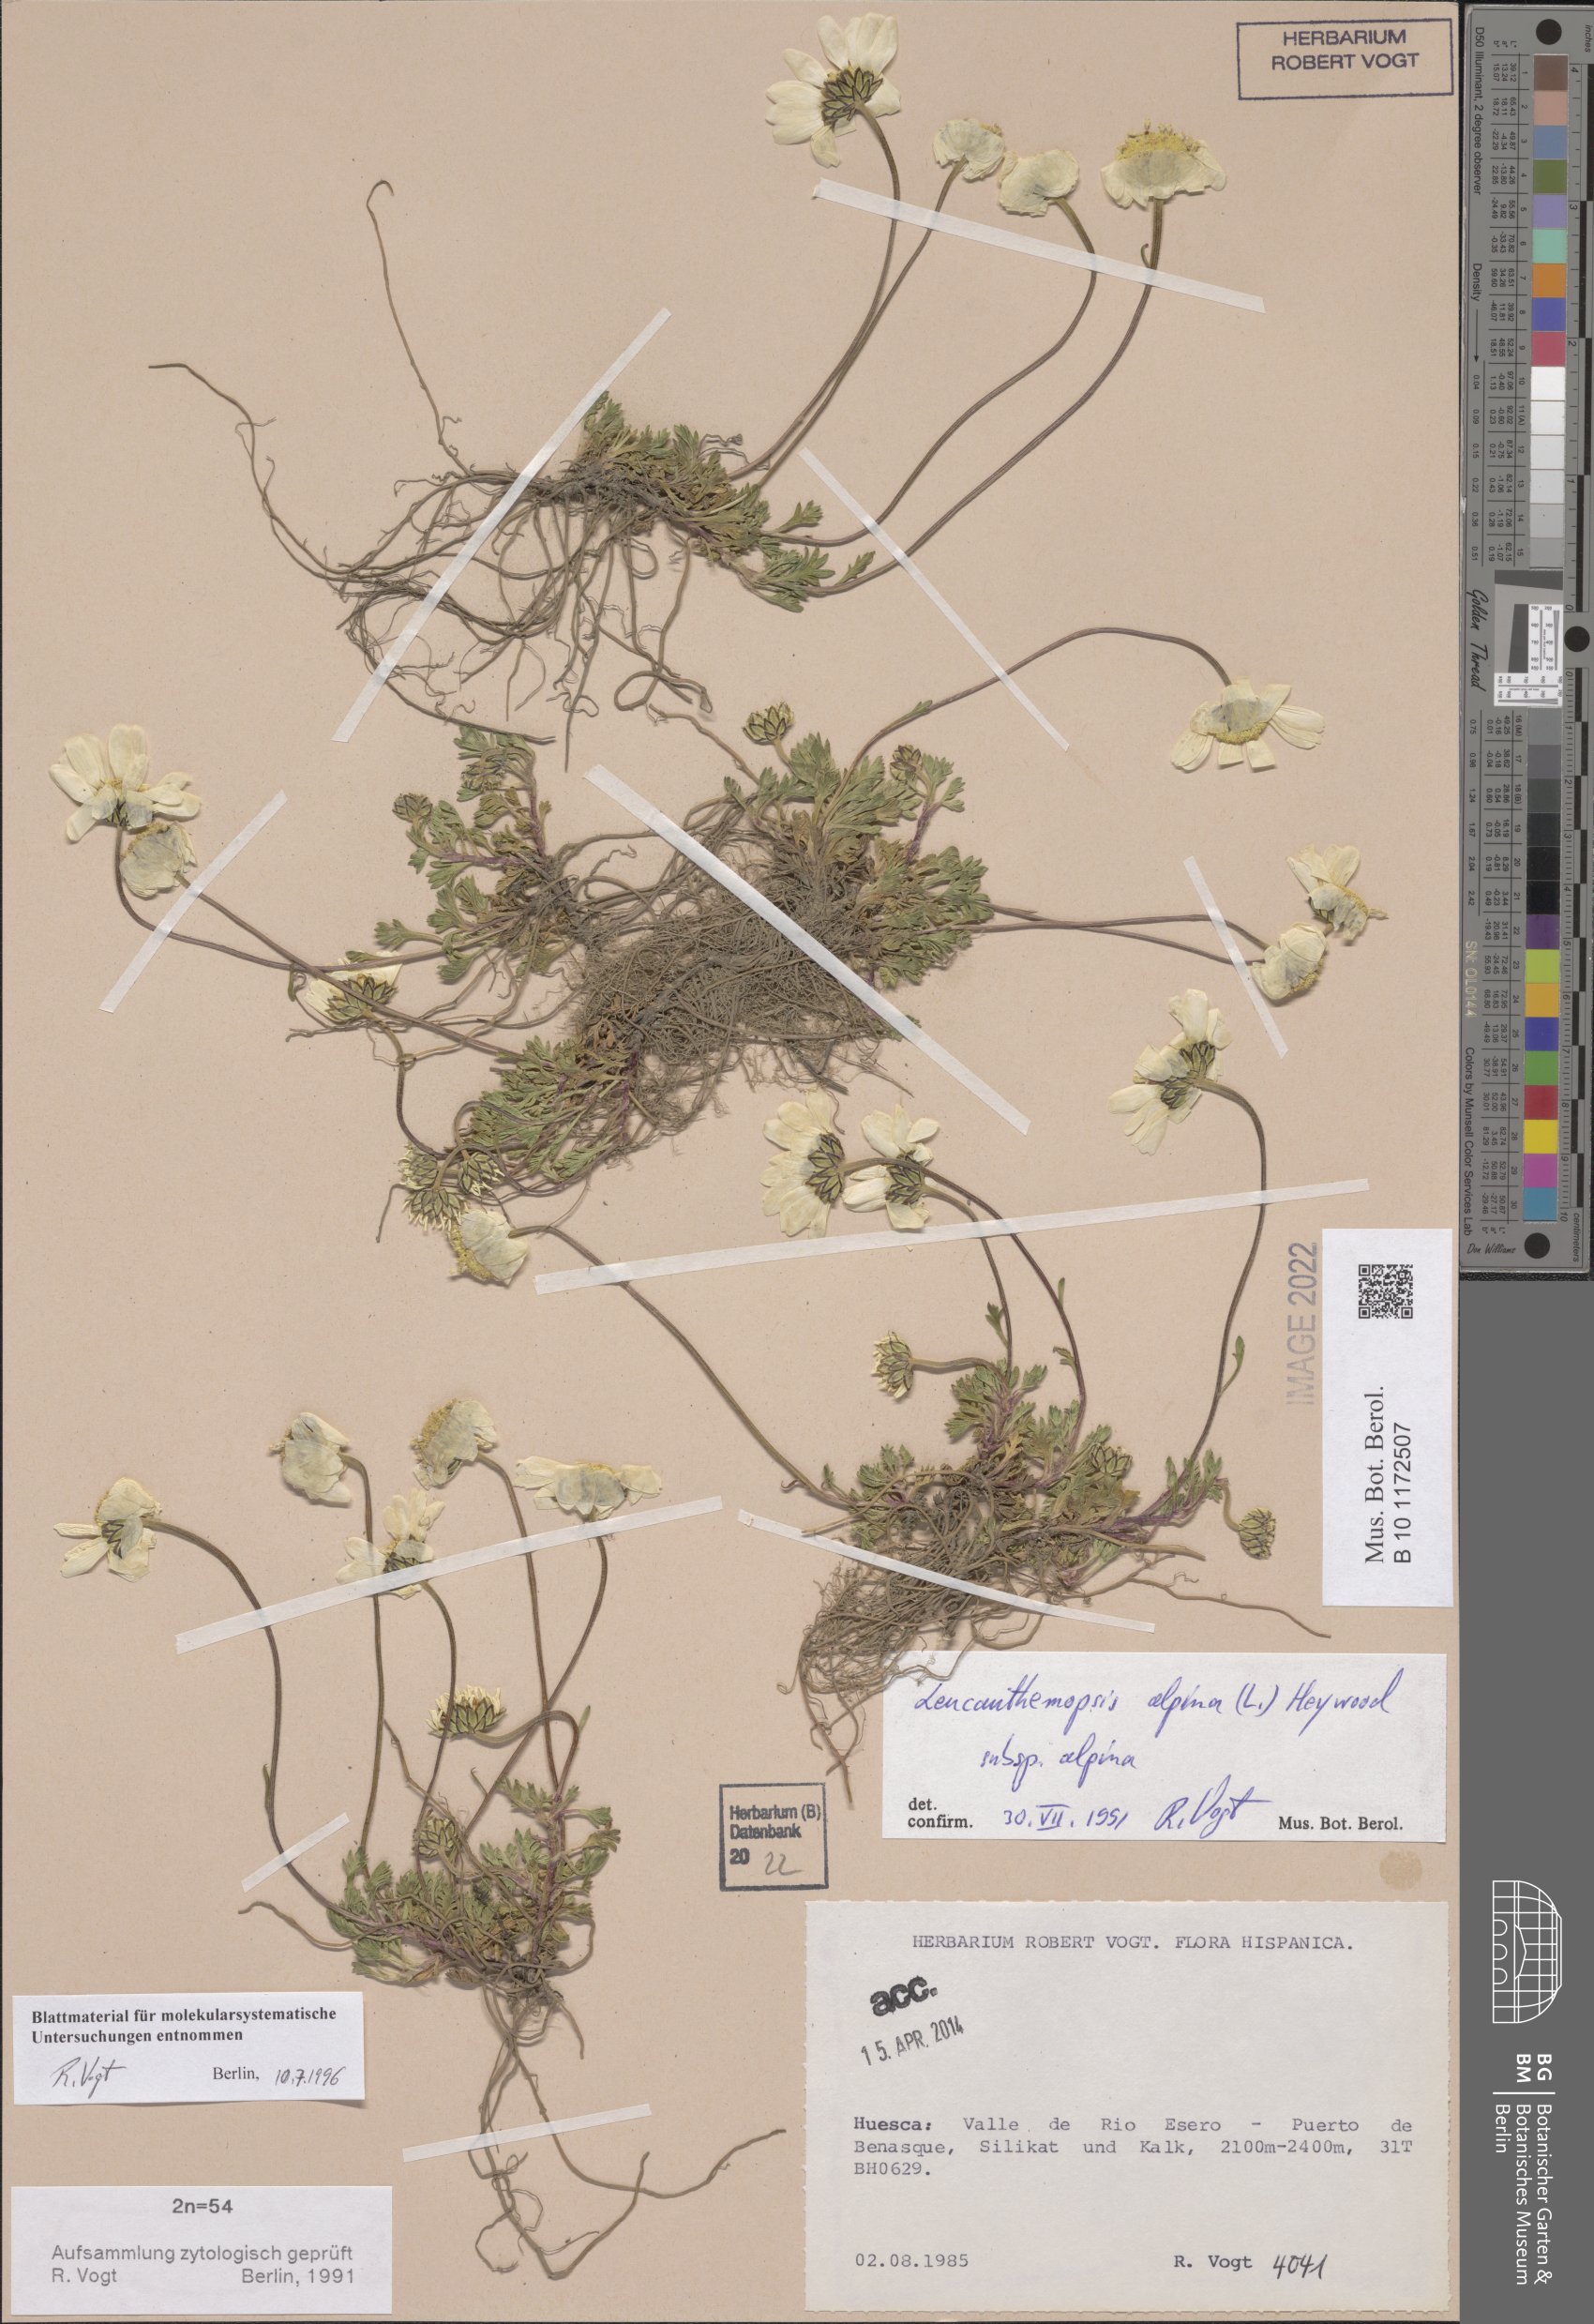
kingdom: Plantae
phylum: Tracheophyta
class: Magnoliopsida
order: Asterales
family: Asteraceae
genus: Leucanthemopsis
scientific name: Leucanthemopsis alpina
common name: Alpine moon daisy
